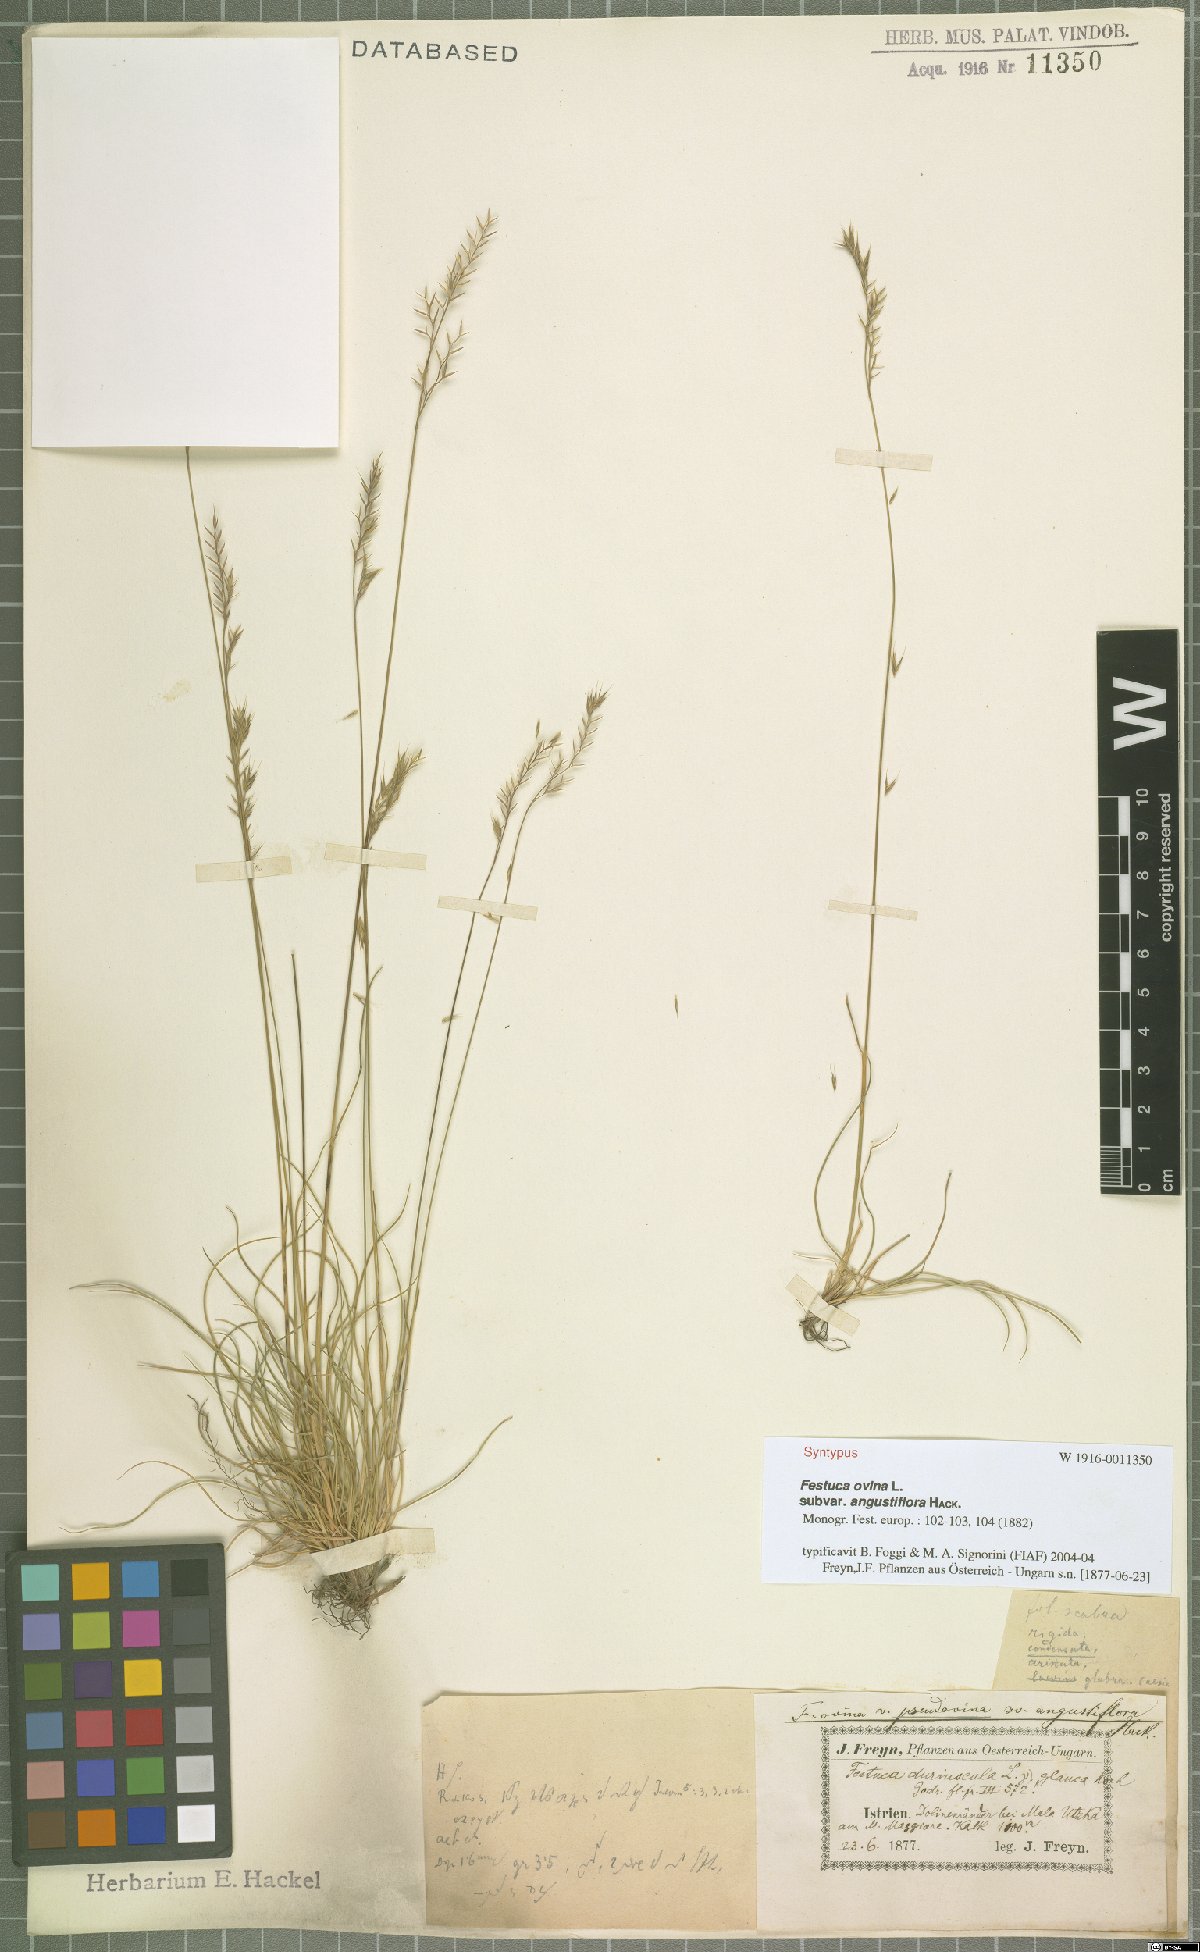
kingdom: Plantae
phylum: Tracheophyta
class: Liliopsida
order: Poales
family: Poaceae
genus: Festuca
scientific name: Festuca ovina
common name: Sheep fescue
